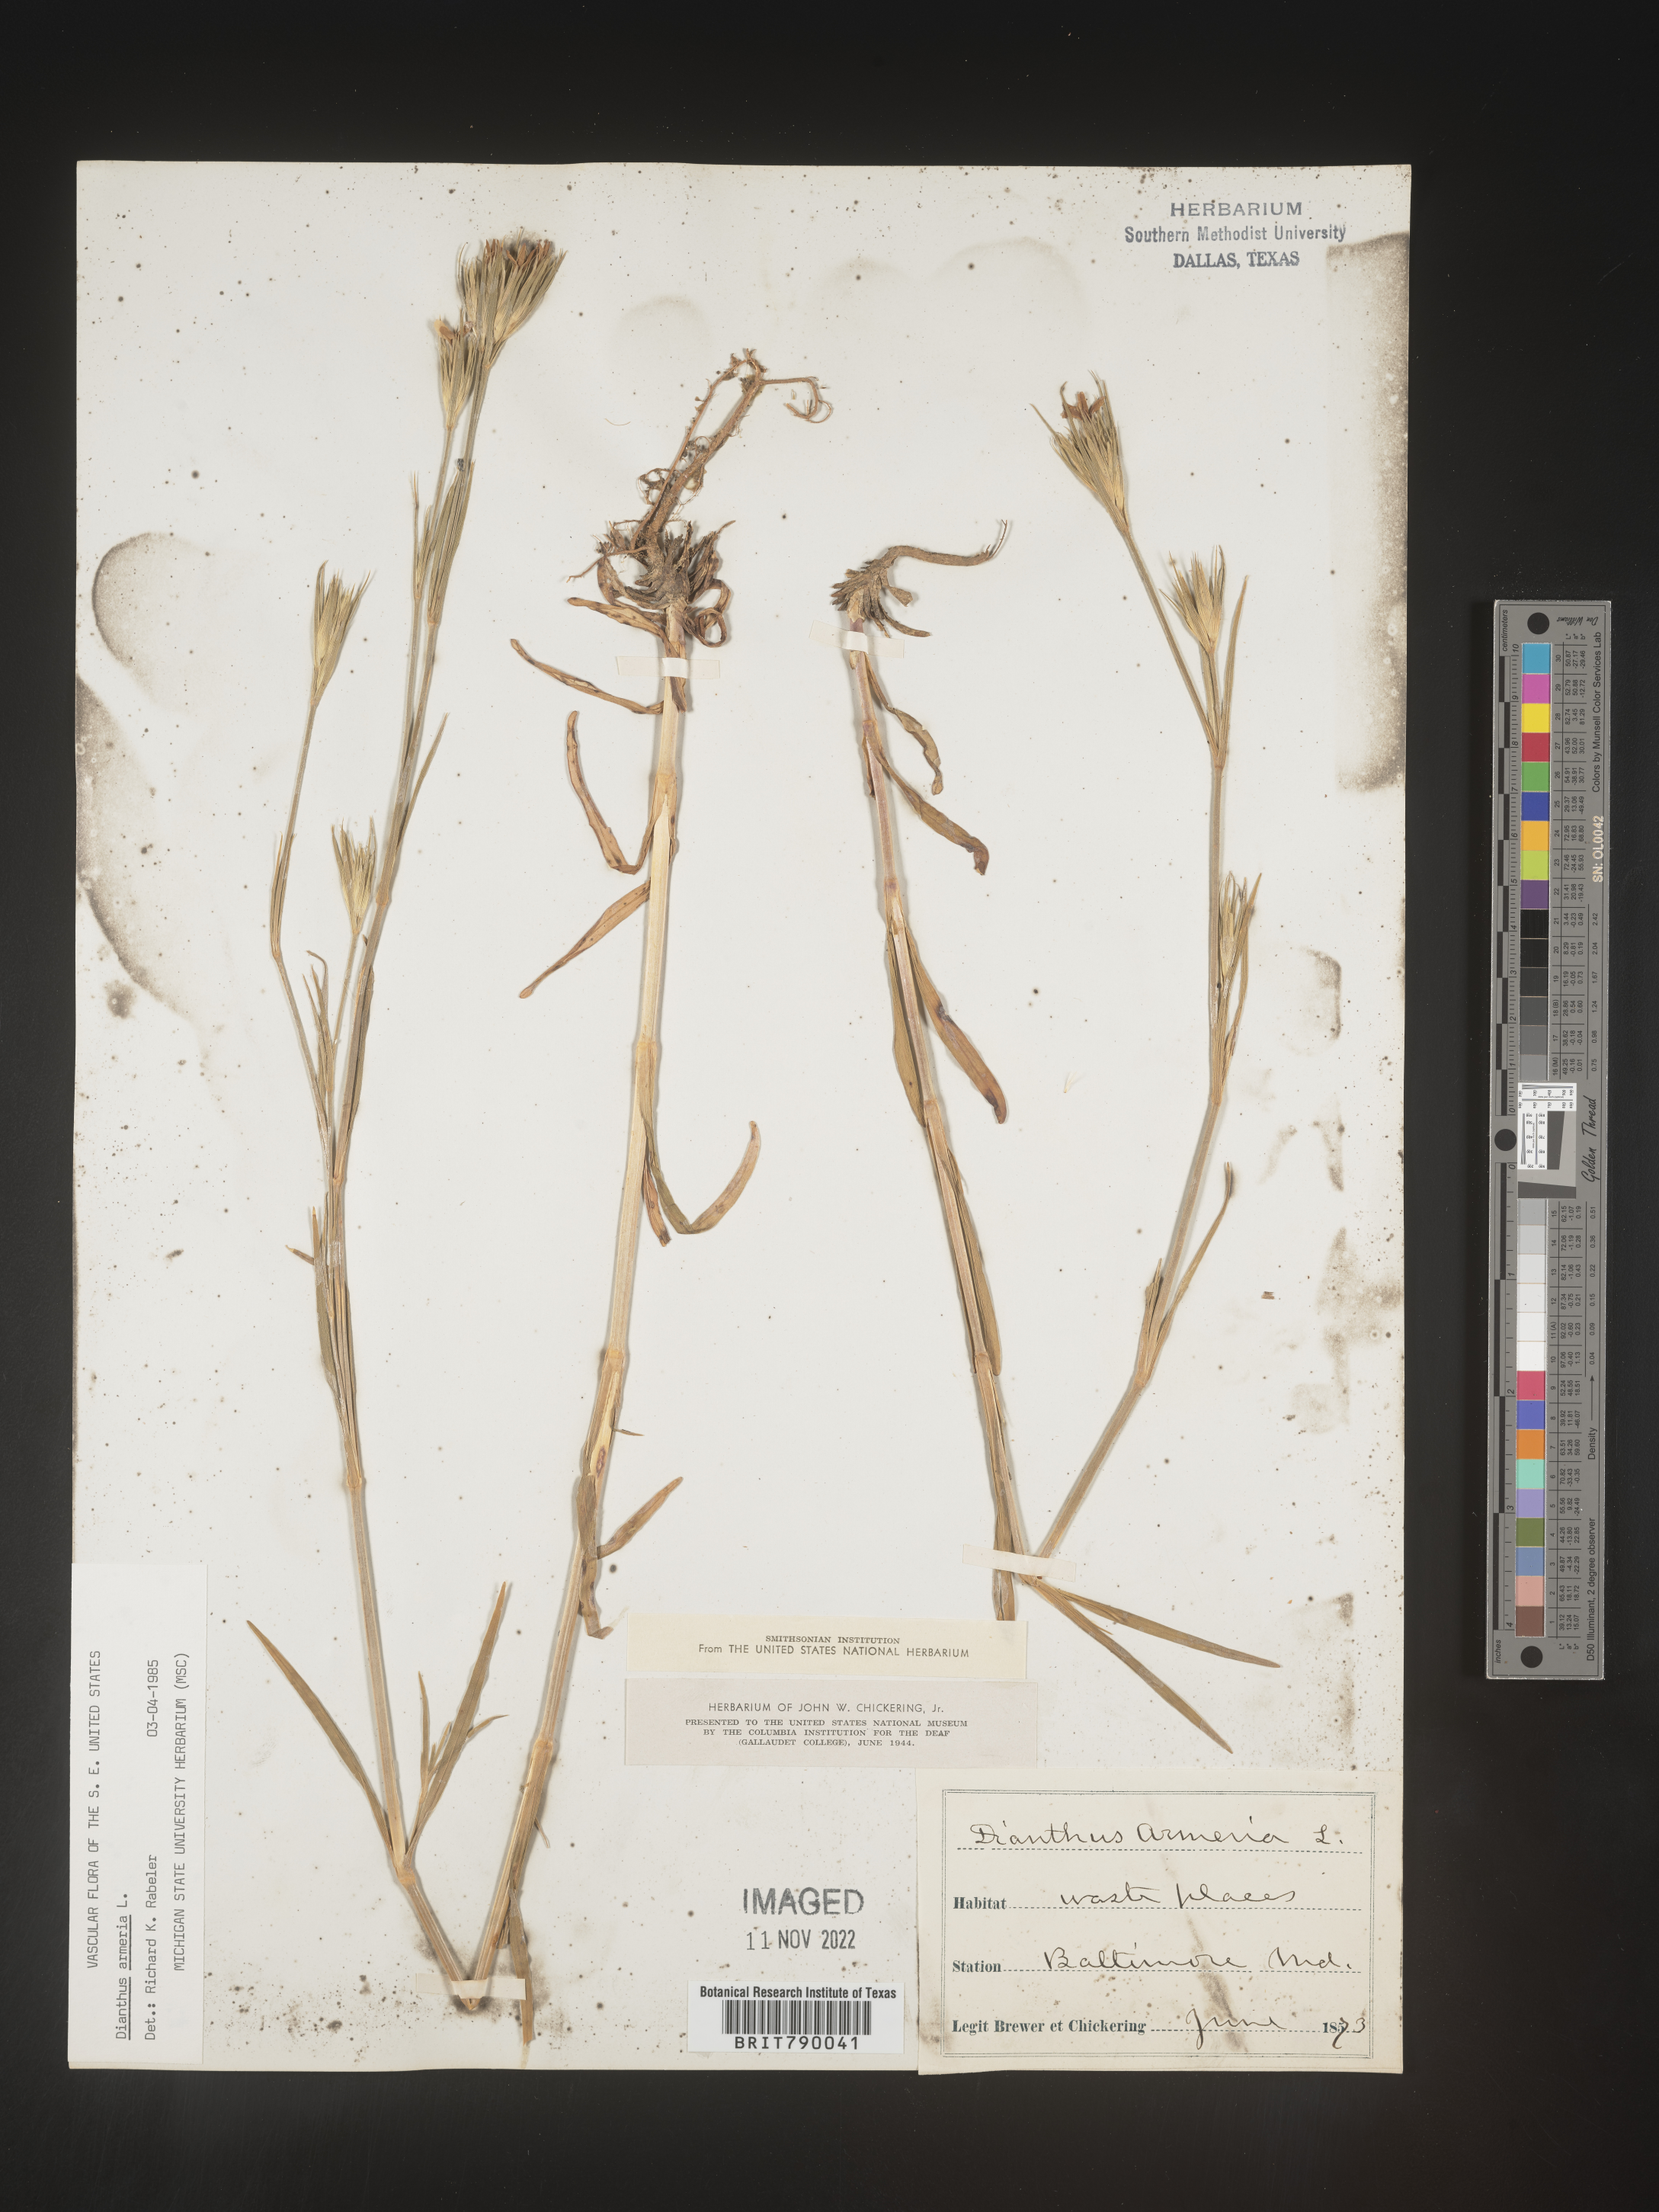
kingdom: Plantae
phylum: Tracheophyta
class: Magnoliopsida
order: Caryophyllales
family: Caryophyllaceae
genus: Dianthus
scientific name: Dianthus armeria
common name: Deptford pink
